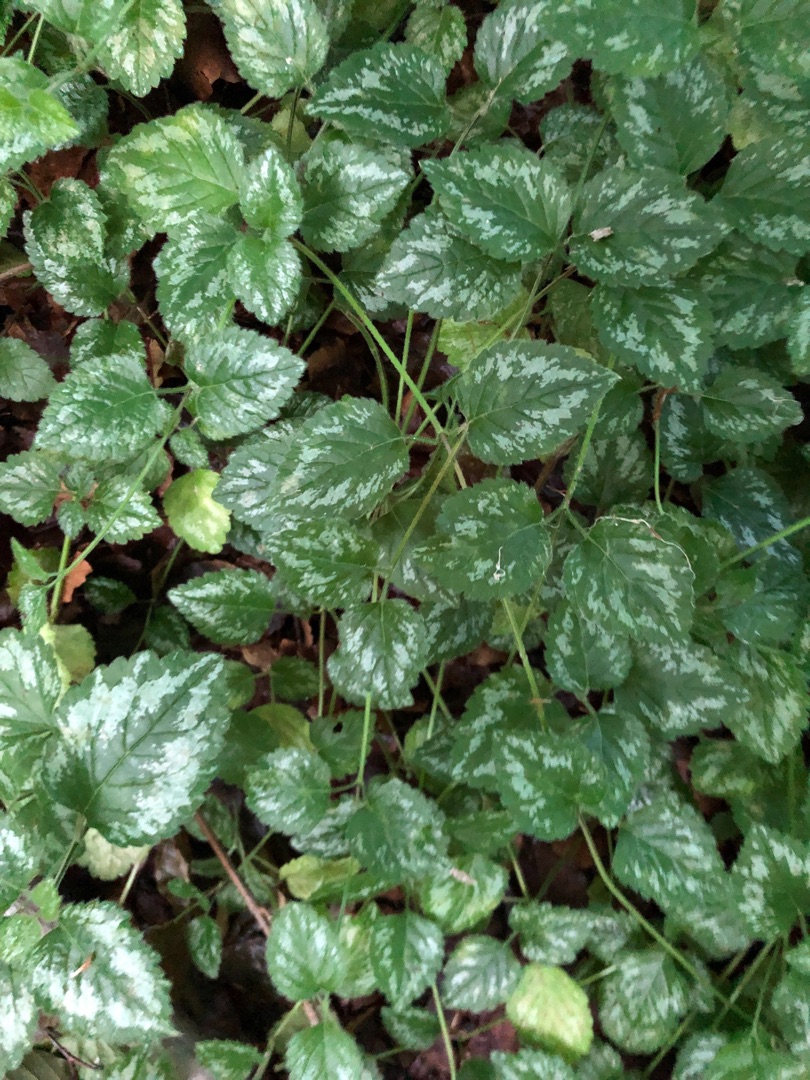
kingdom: Plantae
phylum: Tracheophyta
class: Magnoliopsida
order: Lamiales
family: Lamiaceae
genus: Lamium
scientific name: Lamium galeobdolon
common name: Have-guldnælde
